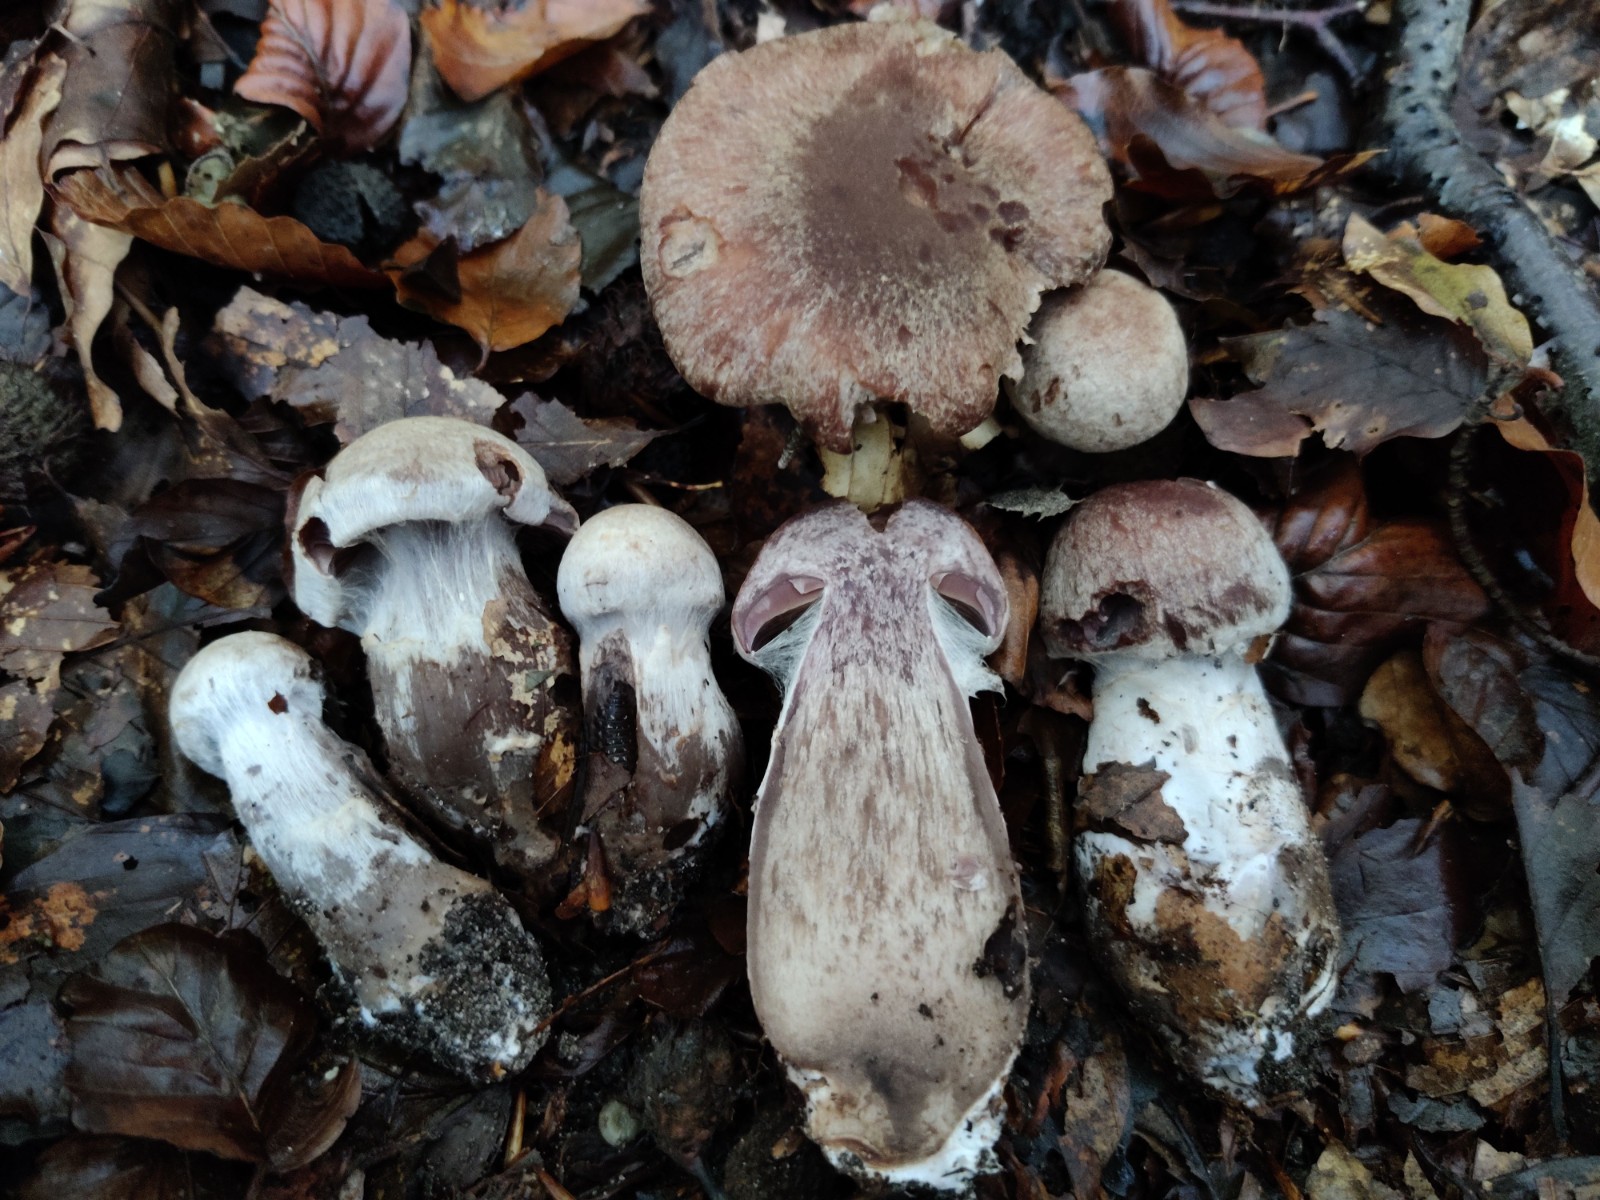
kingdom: Fungi
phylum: Basidiomycota
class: Agaricomycetes
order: Agaricales
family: Cortinariaceae
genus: Cortinarius
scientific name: Cortinarius sordescens
